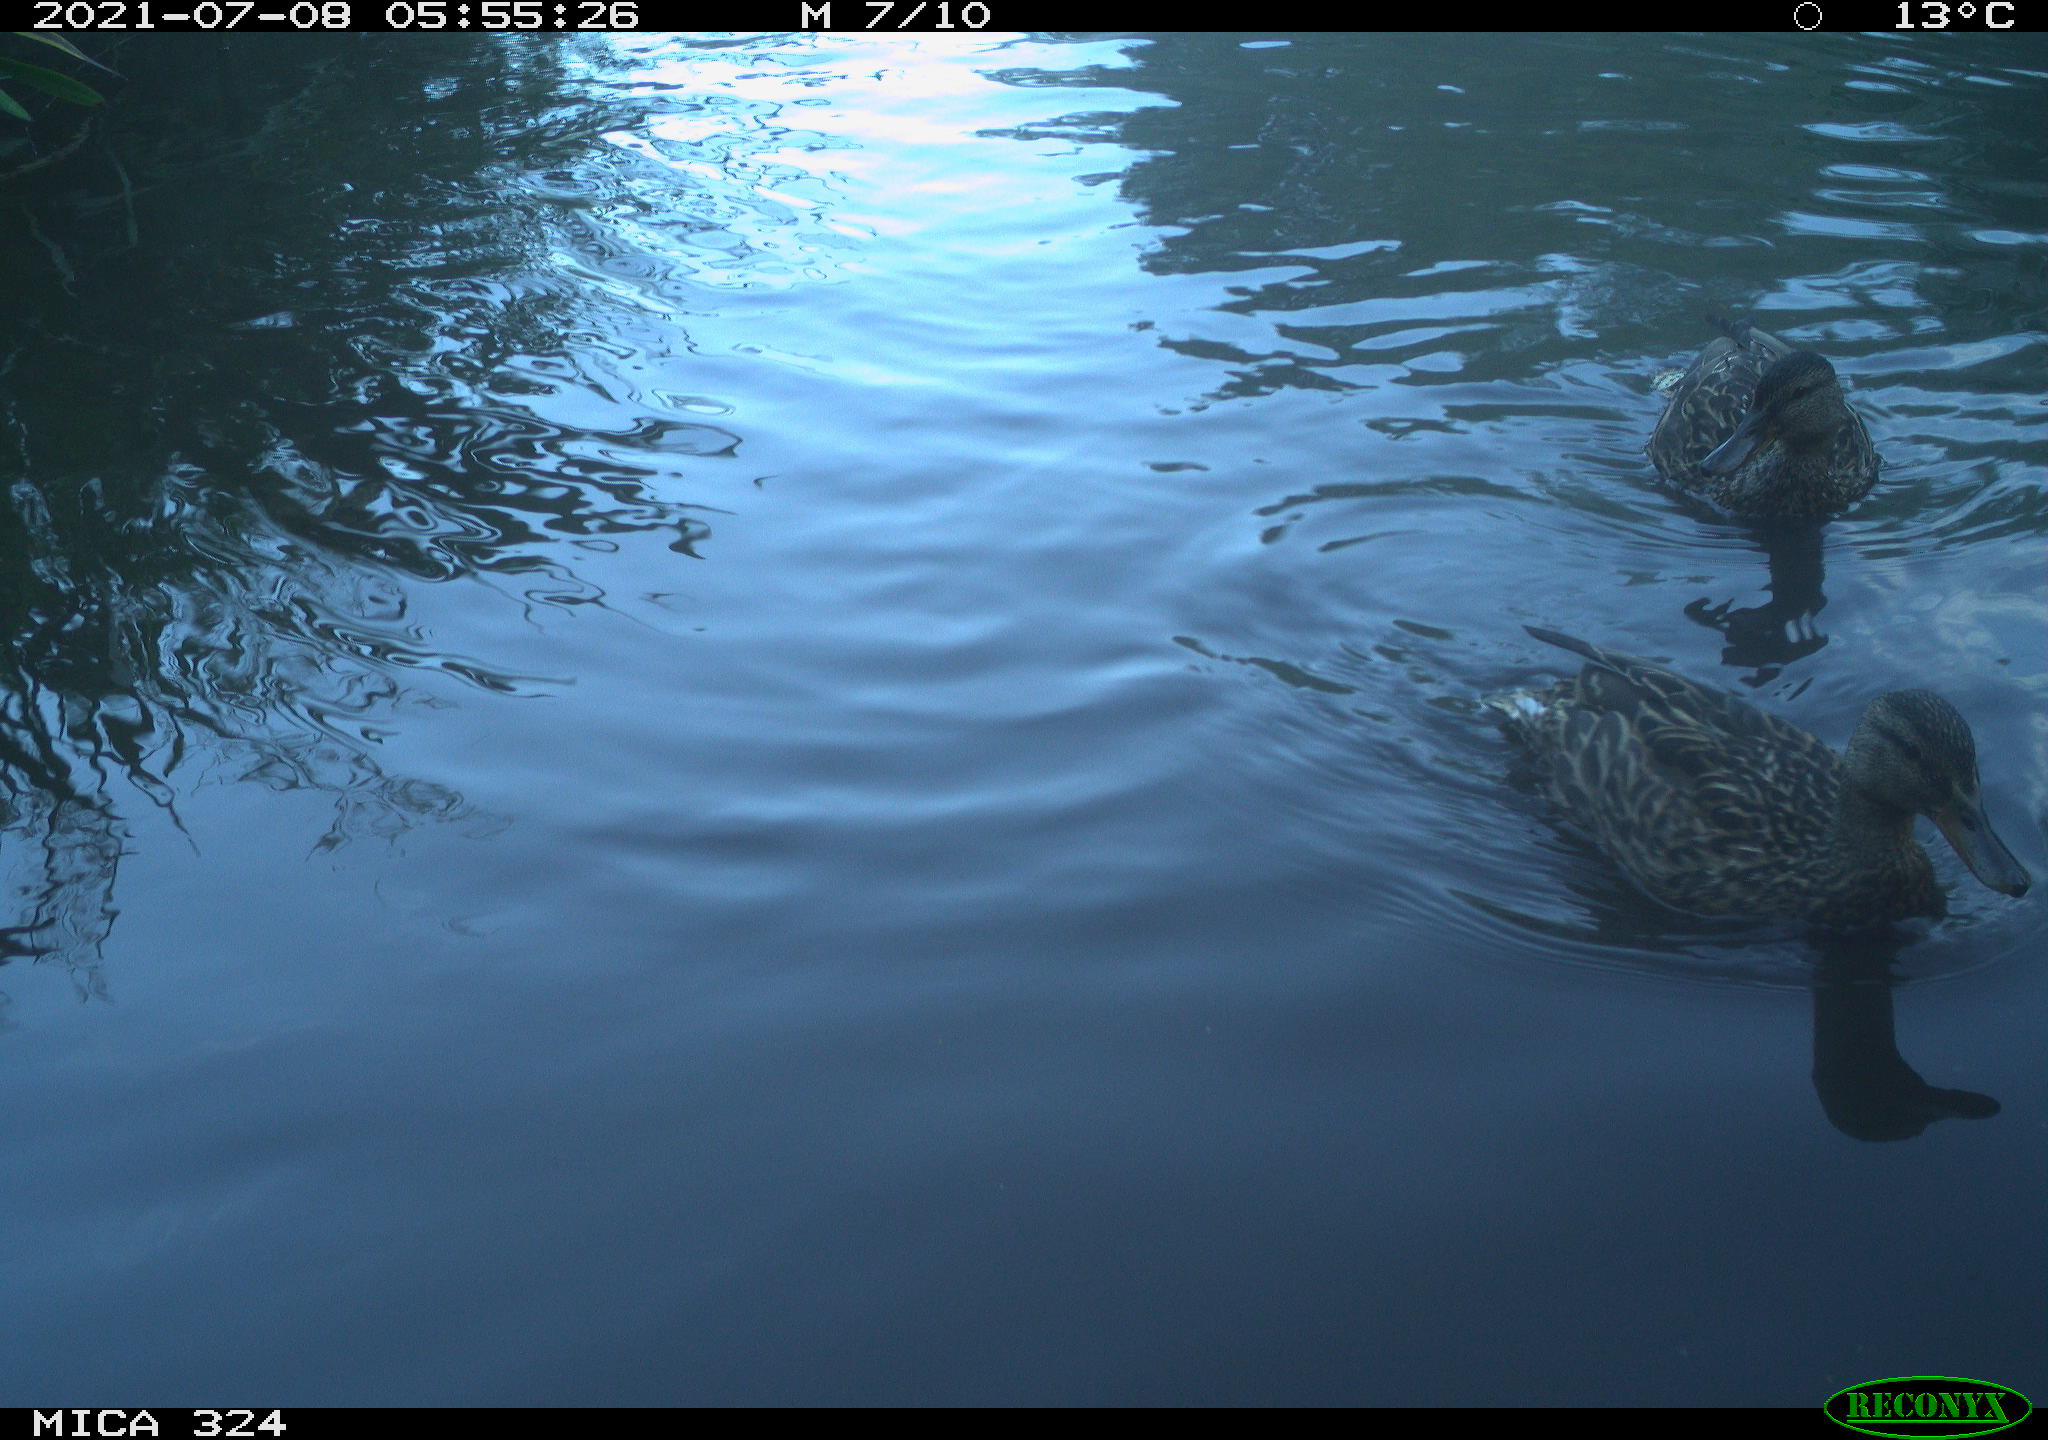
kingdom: Animalia
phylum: Chordata
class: Aves
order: Anseriformes
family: Anatidae
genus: Anas
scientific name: Anas platyrhynchos
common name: Mallard
